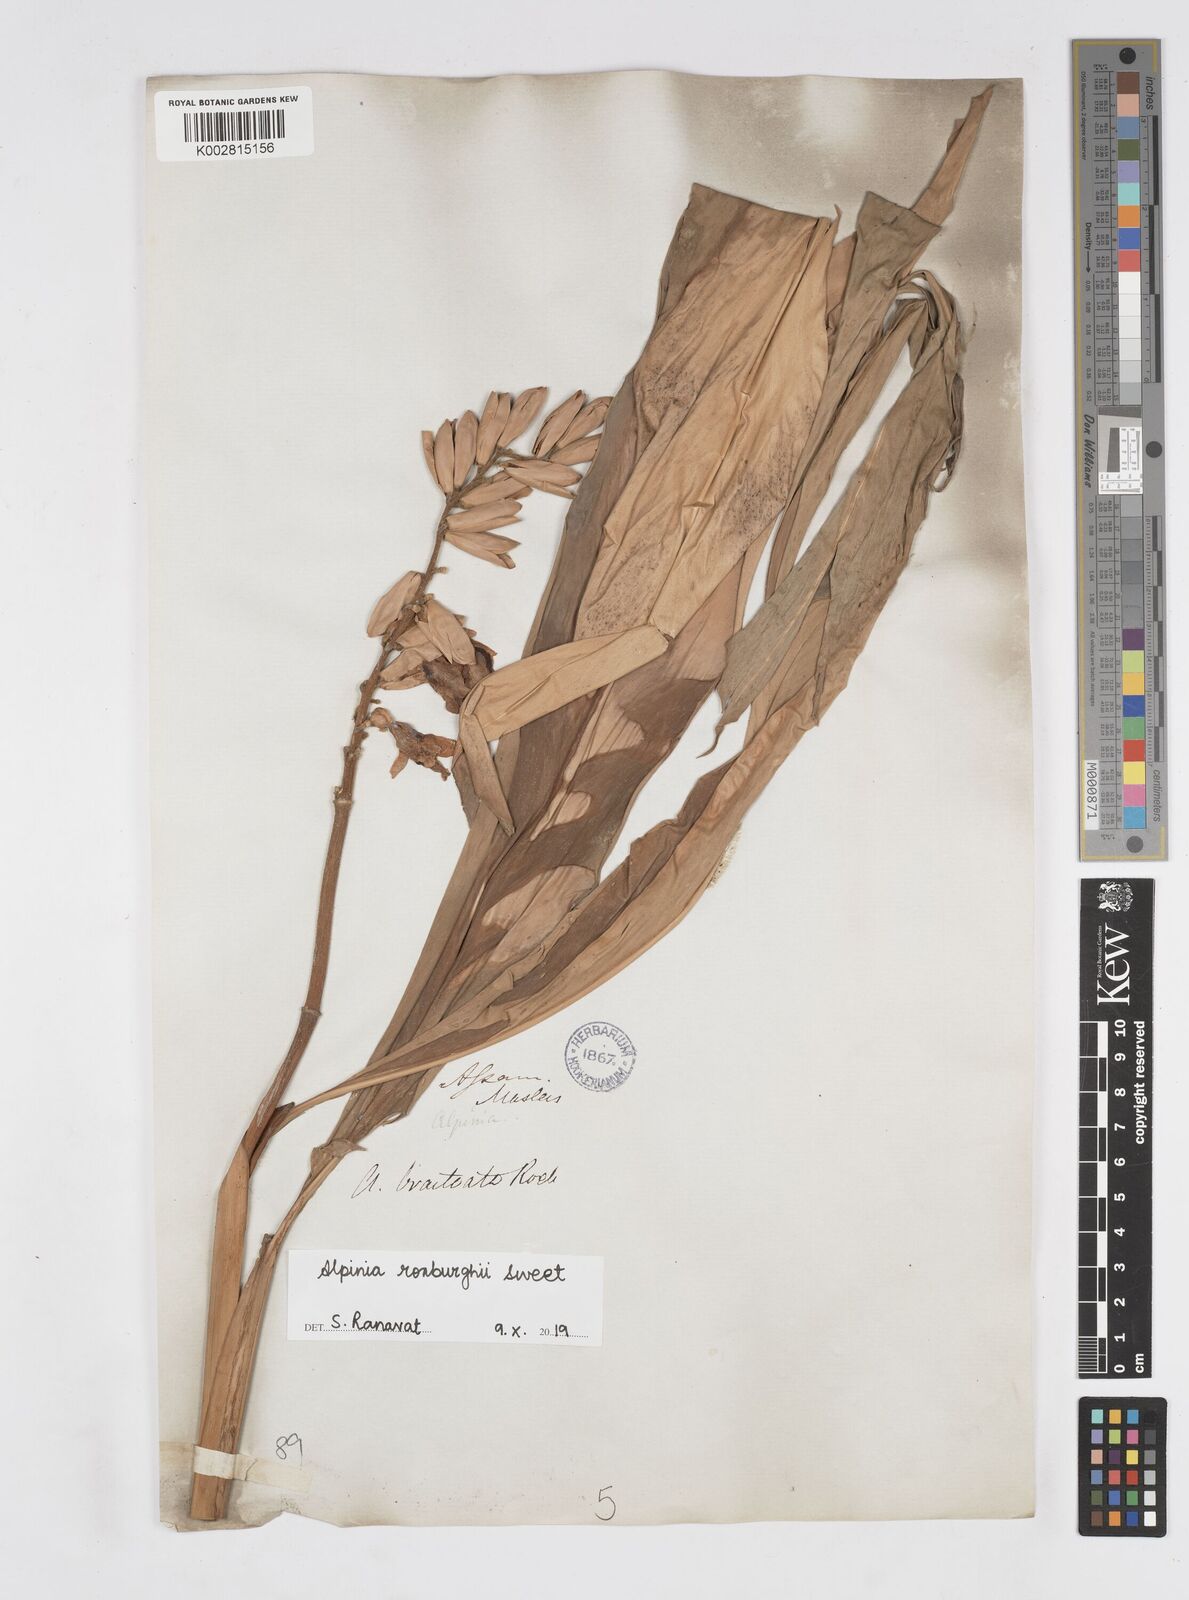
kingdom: Plantae
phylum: Tracheophyta
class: Liliopsida
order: Zingiberales
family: Zingiberaceae
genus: Alpinia
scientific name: Alpinia roxburghii
